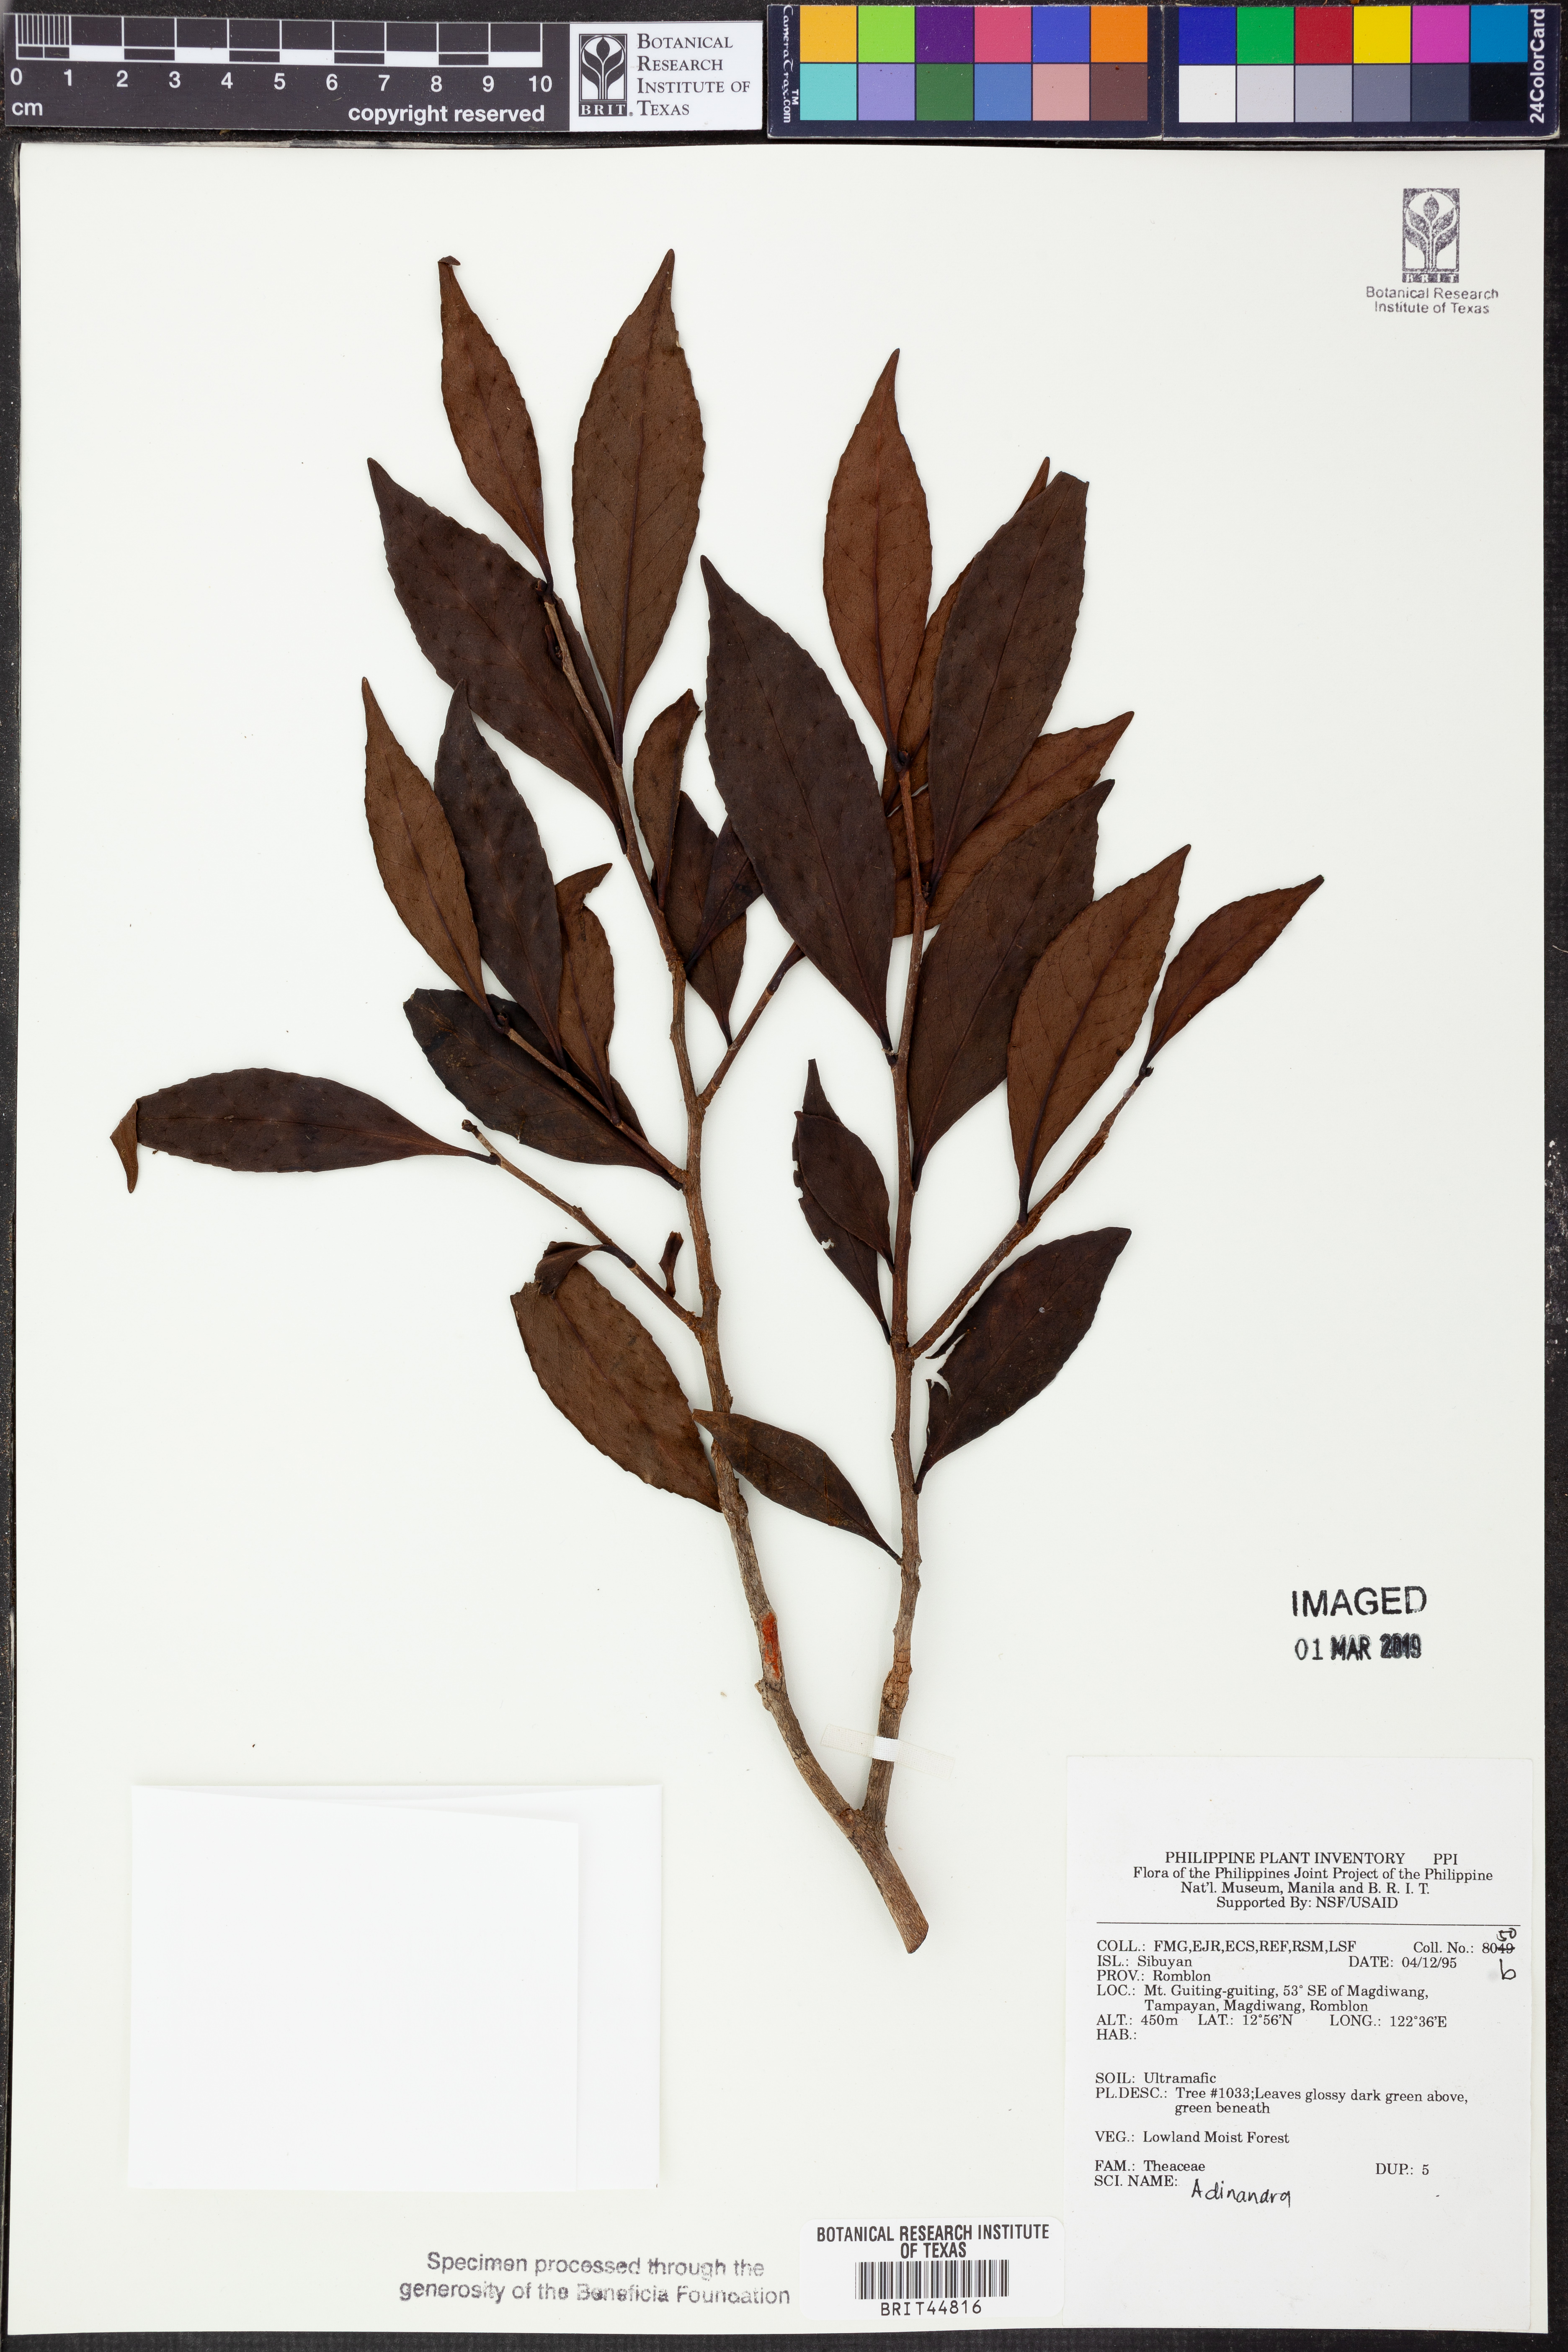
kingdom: Plantae
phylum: Tracheophyta
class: Magnoliopsida
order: Ericales
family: Pentaphylacaceae
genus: Adinandra
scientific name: Adinandra
